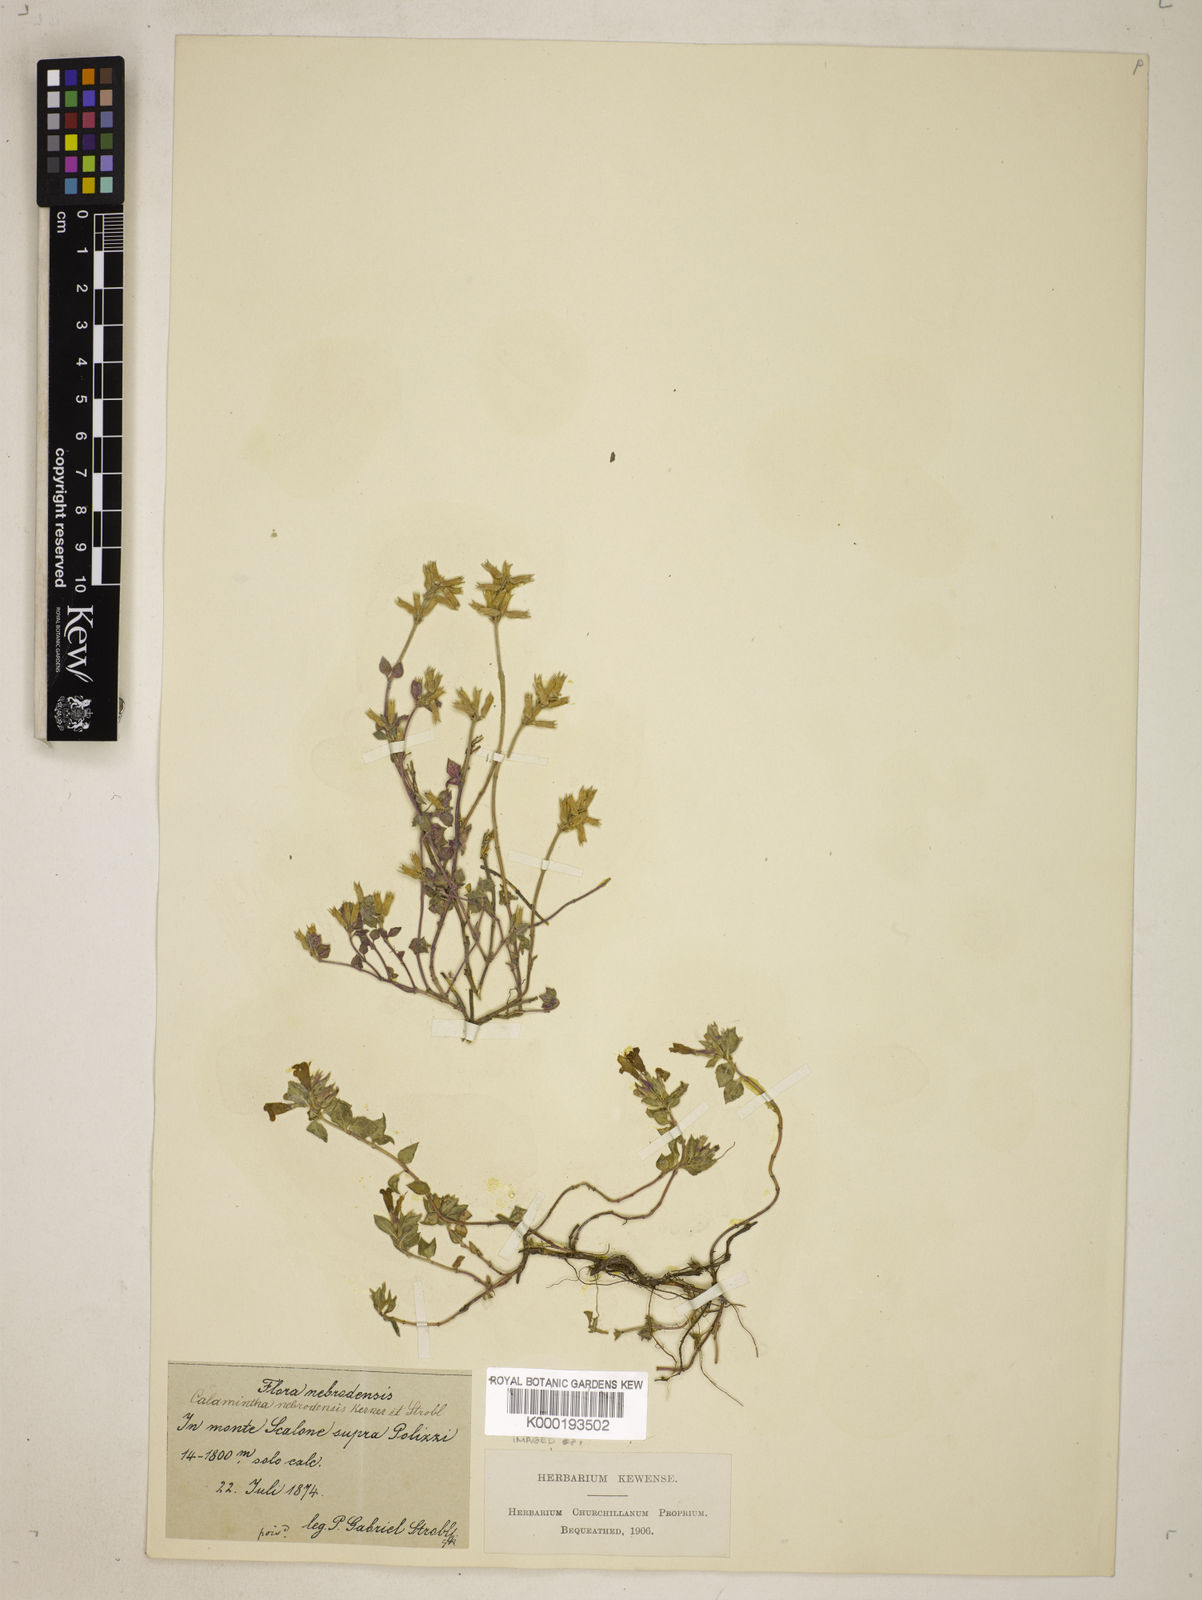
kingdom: Plantae
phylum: Tracheophyta
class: Magnoliopsida
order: Lamiales
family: Lamiaceae
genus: Clinopodium
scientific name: Clinopodium alpinum
